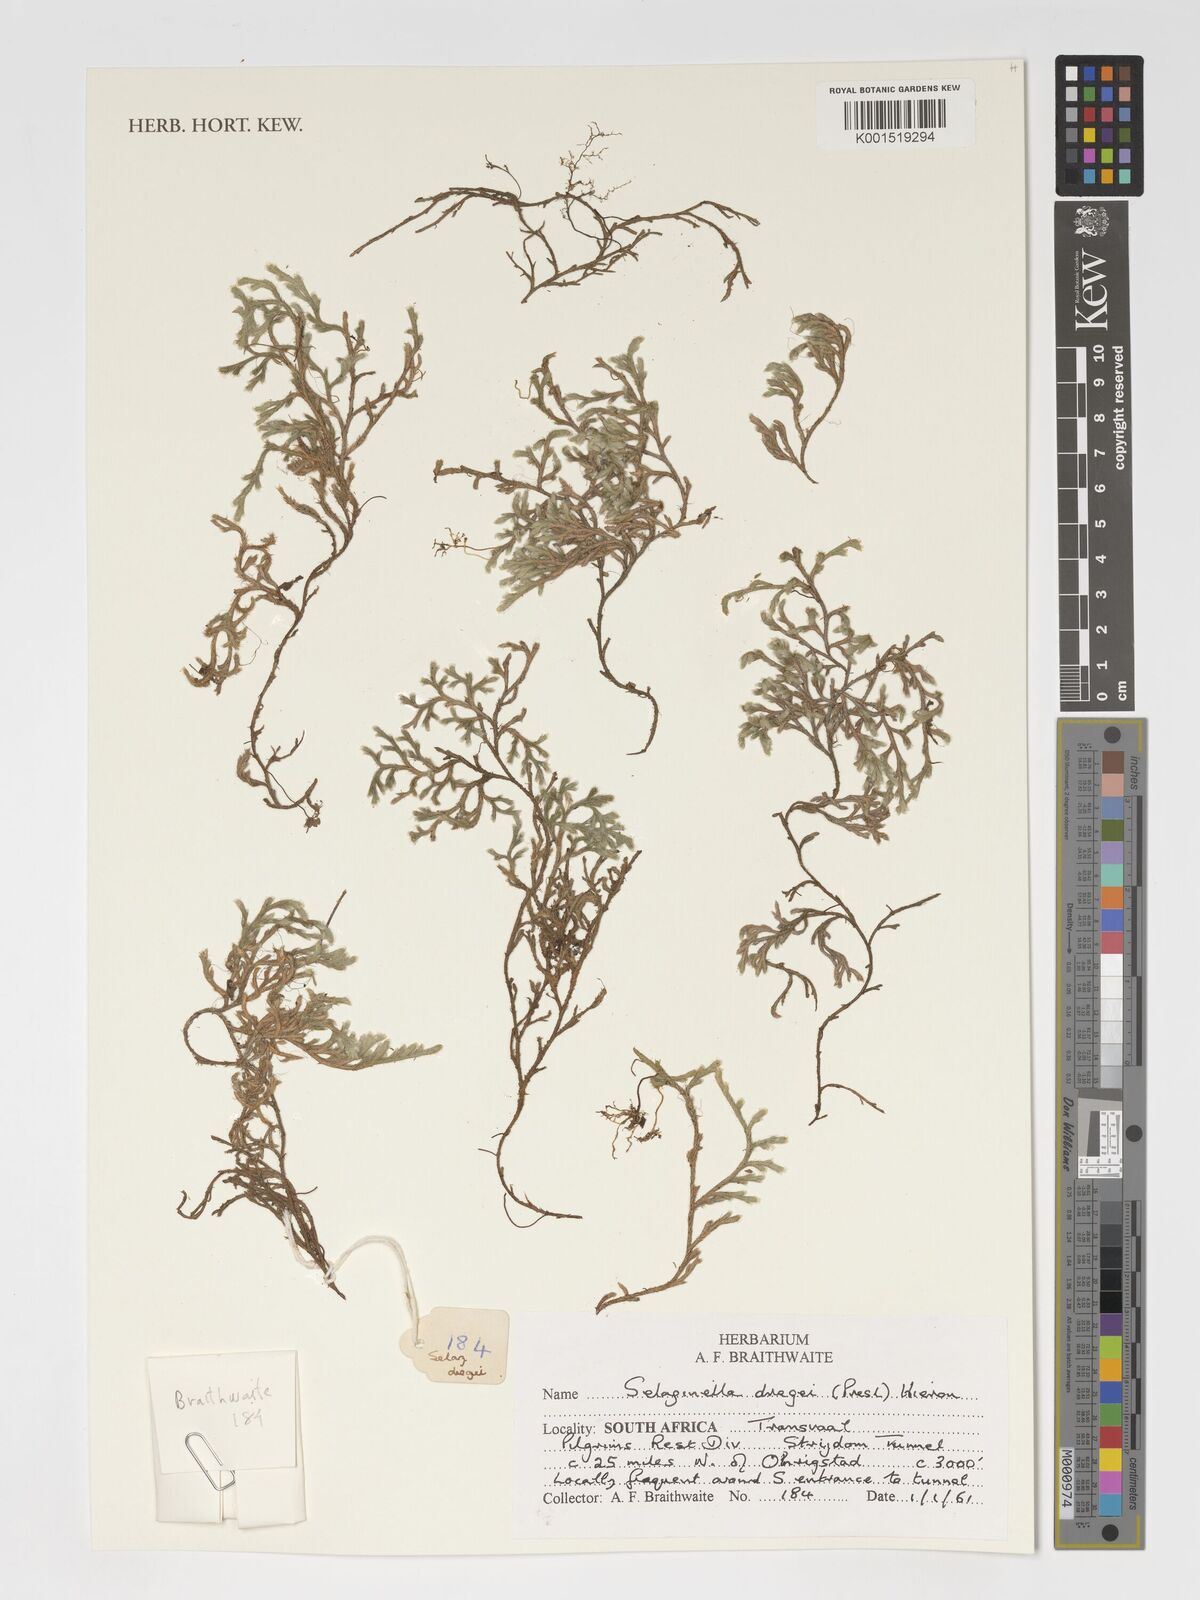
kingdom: Plantae
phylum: Tracheophyta
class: Lycopodiopsida
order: Selaginellales
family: Selaginellaceae
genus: Selaginella
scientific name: Selaginella dregei
